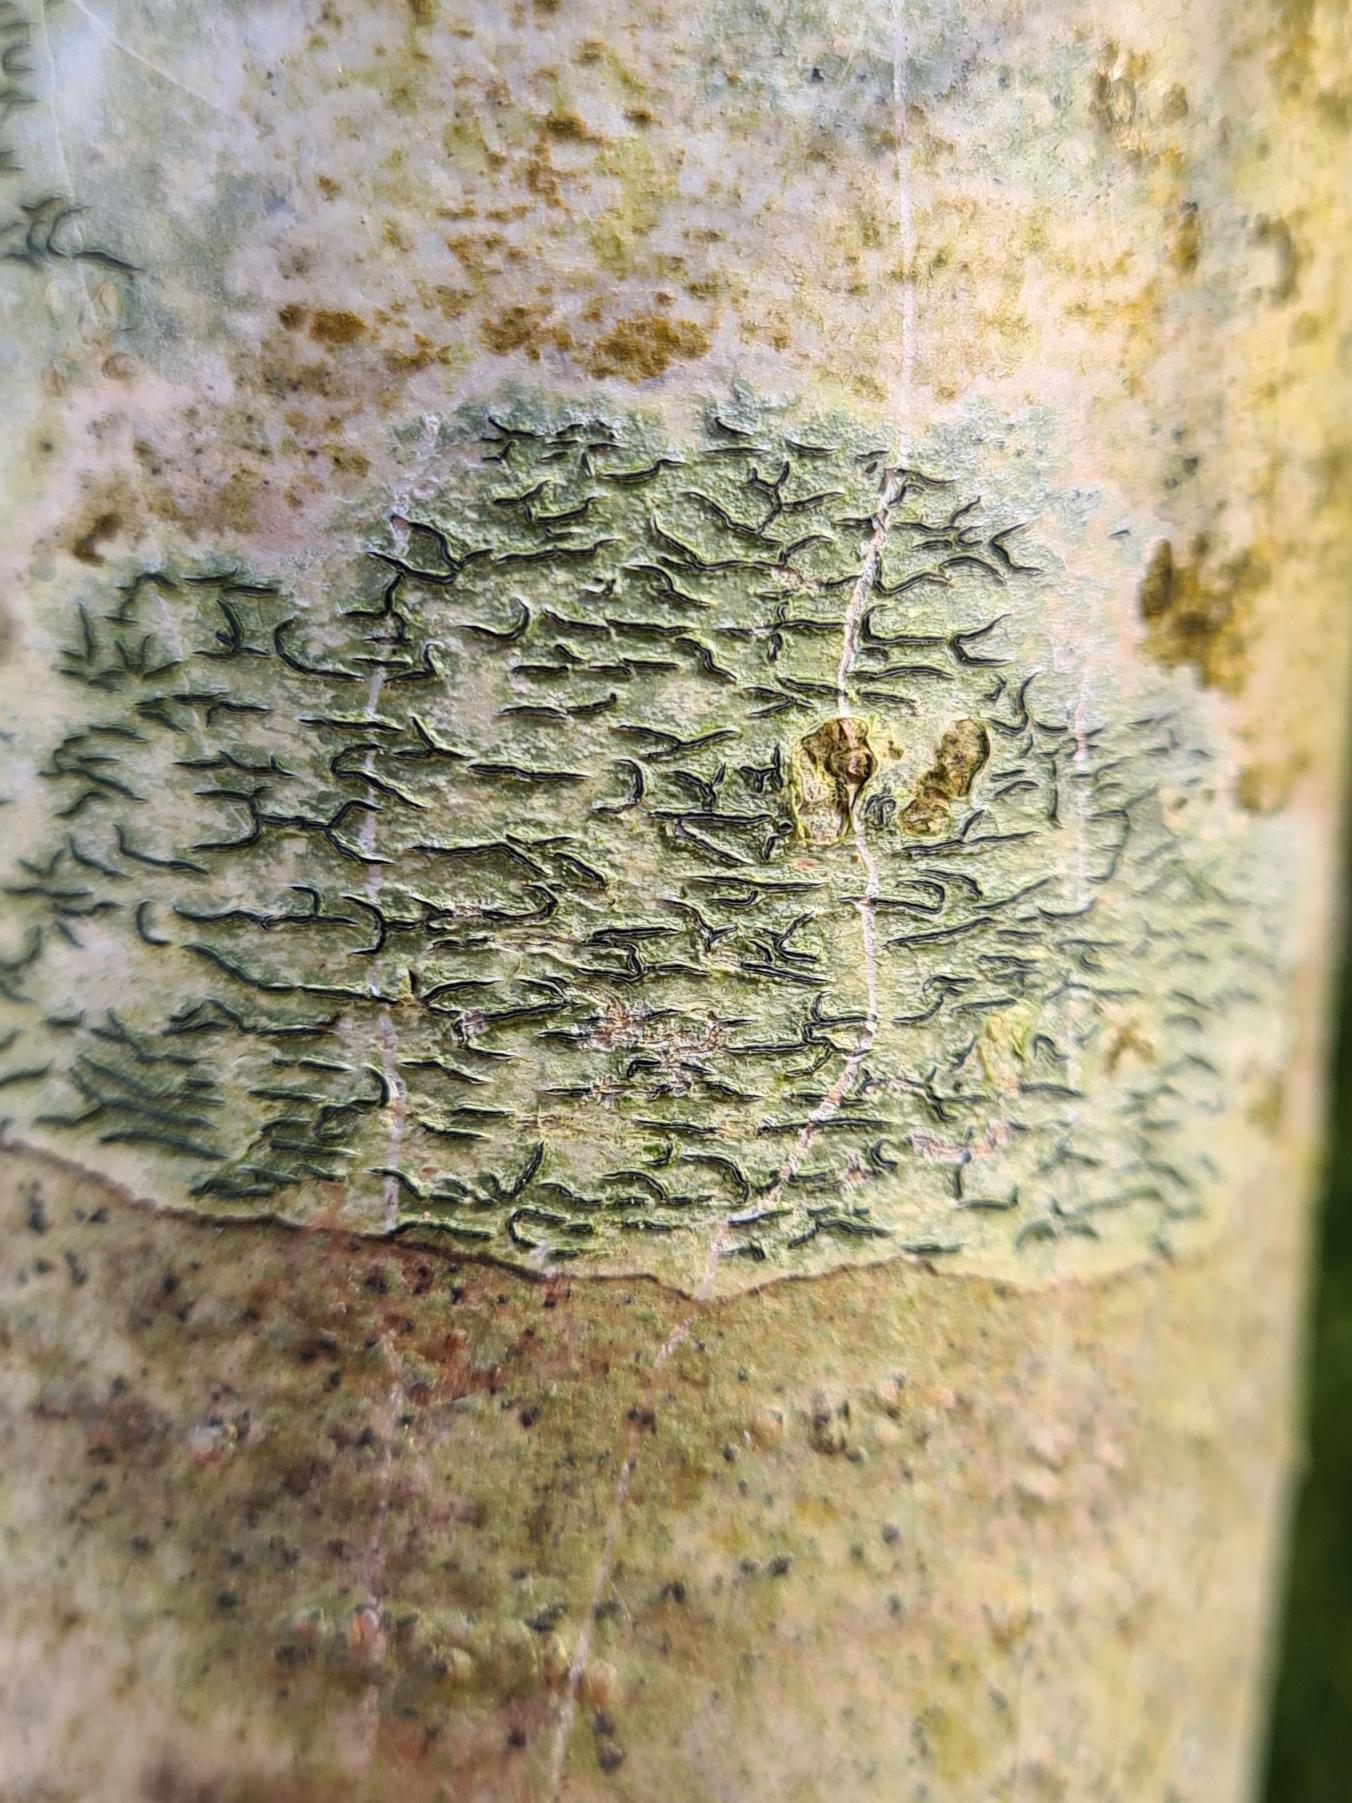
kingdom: Fungi
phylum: Ascomycota
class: Lecanoromycetes
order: Ostropales
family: Graphidaceae
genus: Graphis
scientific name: Graphis scripta
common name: Almindelig skriftlav
